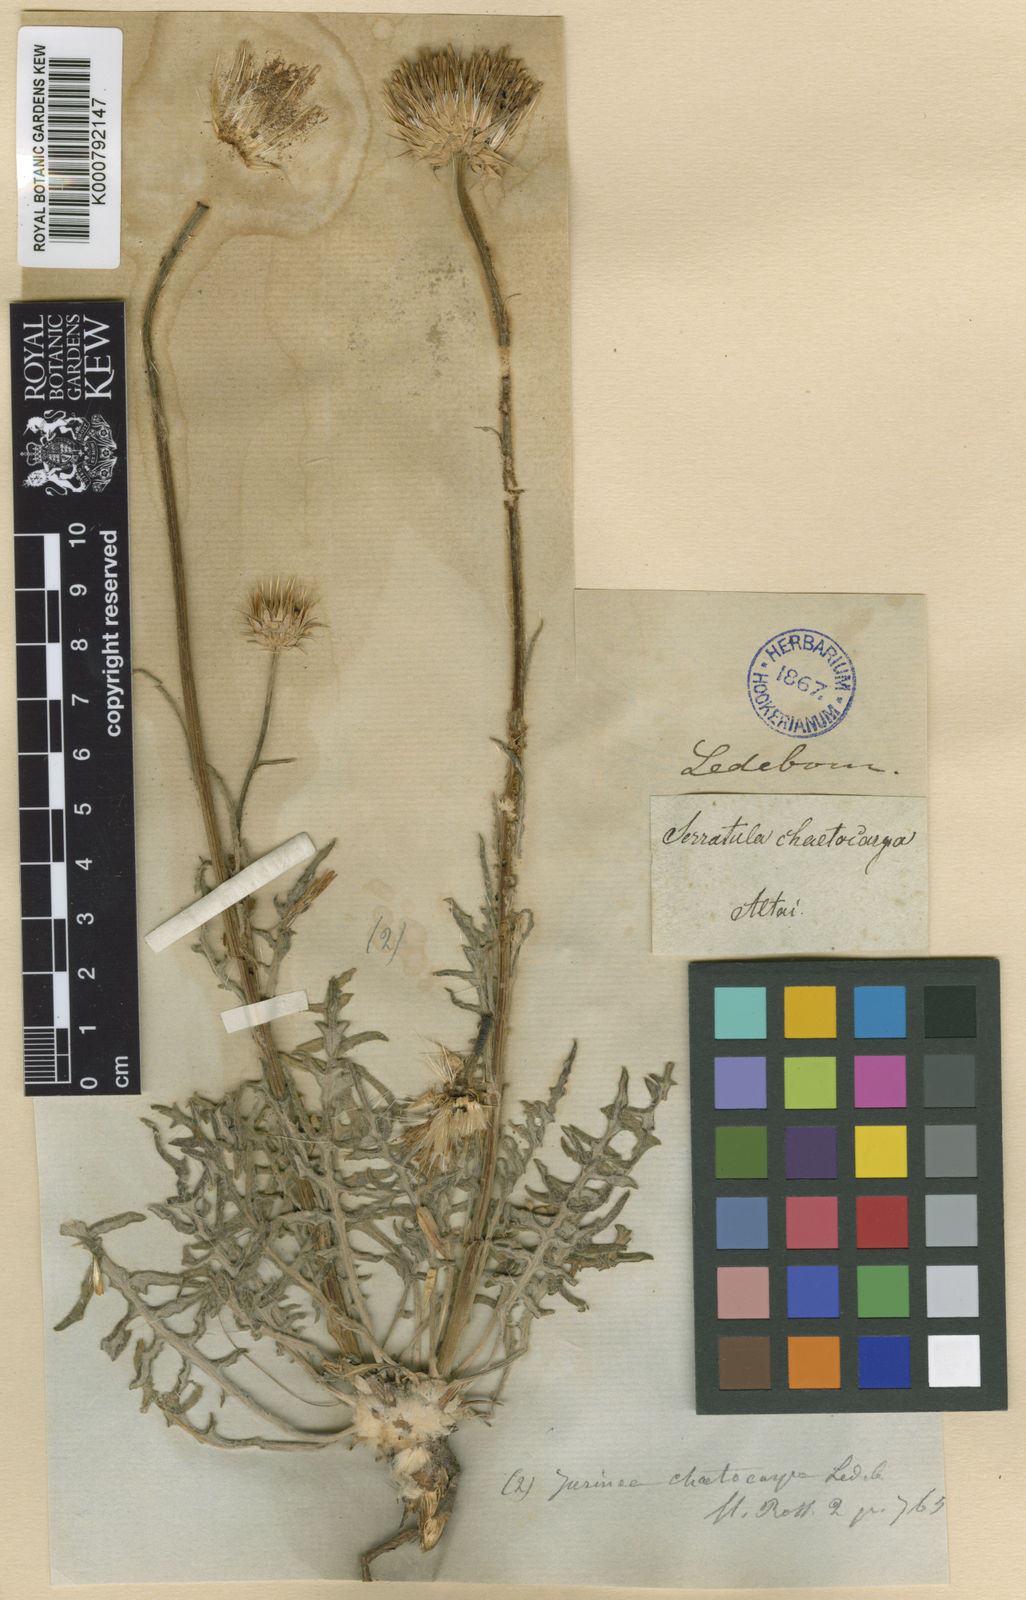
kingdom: Plantae
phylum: Tracheophyta
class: Magnoliopsida
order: Asterales
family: Asteraceae
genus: Jurinea
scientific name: Jurinea chaetocarpa
